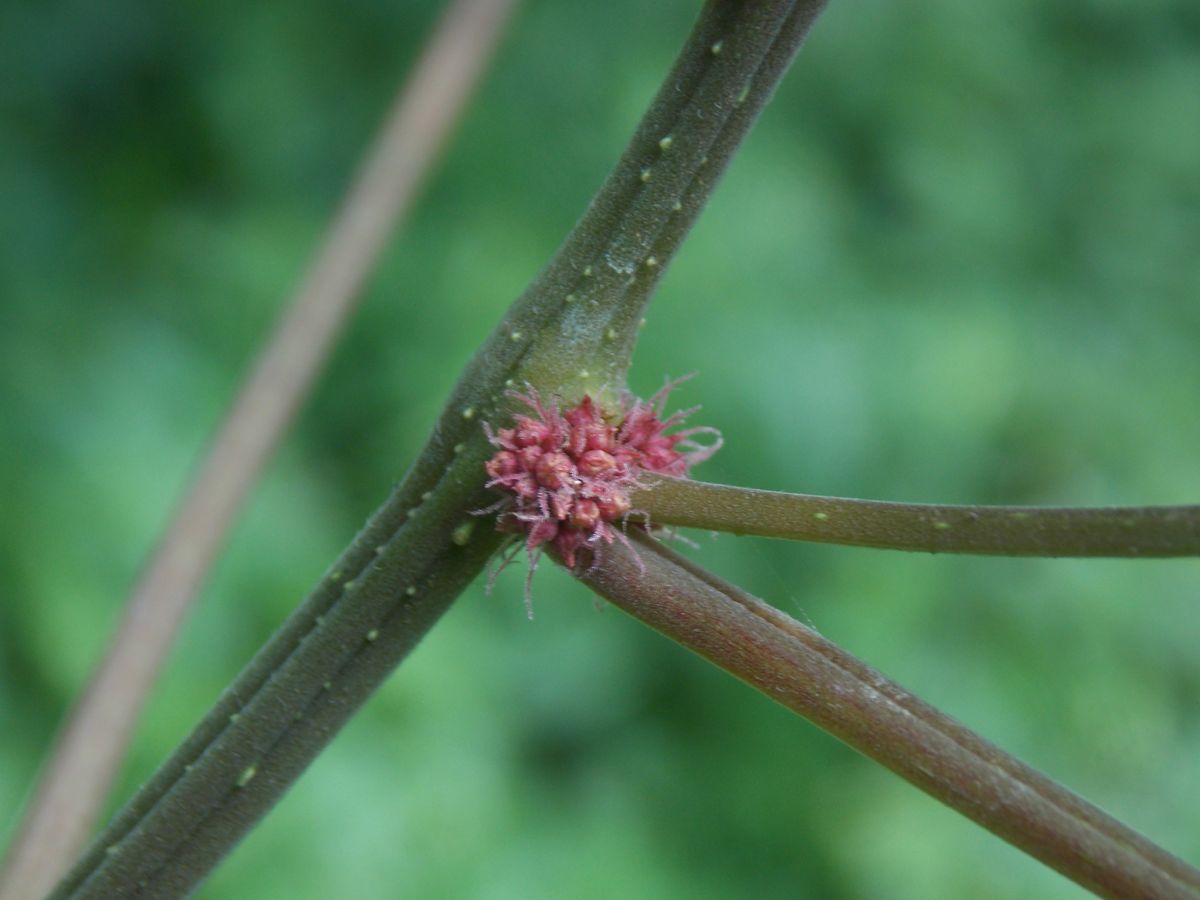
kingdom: Plantae
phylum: Tracheophyta
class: Magnoliopsida
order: Rosales
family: Urticaceae
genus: Boehmeria
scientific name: Boehmeria
